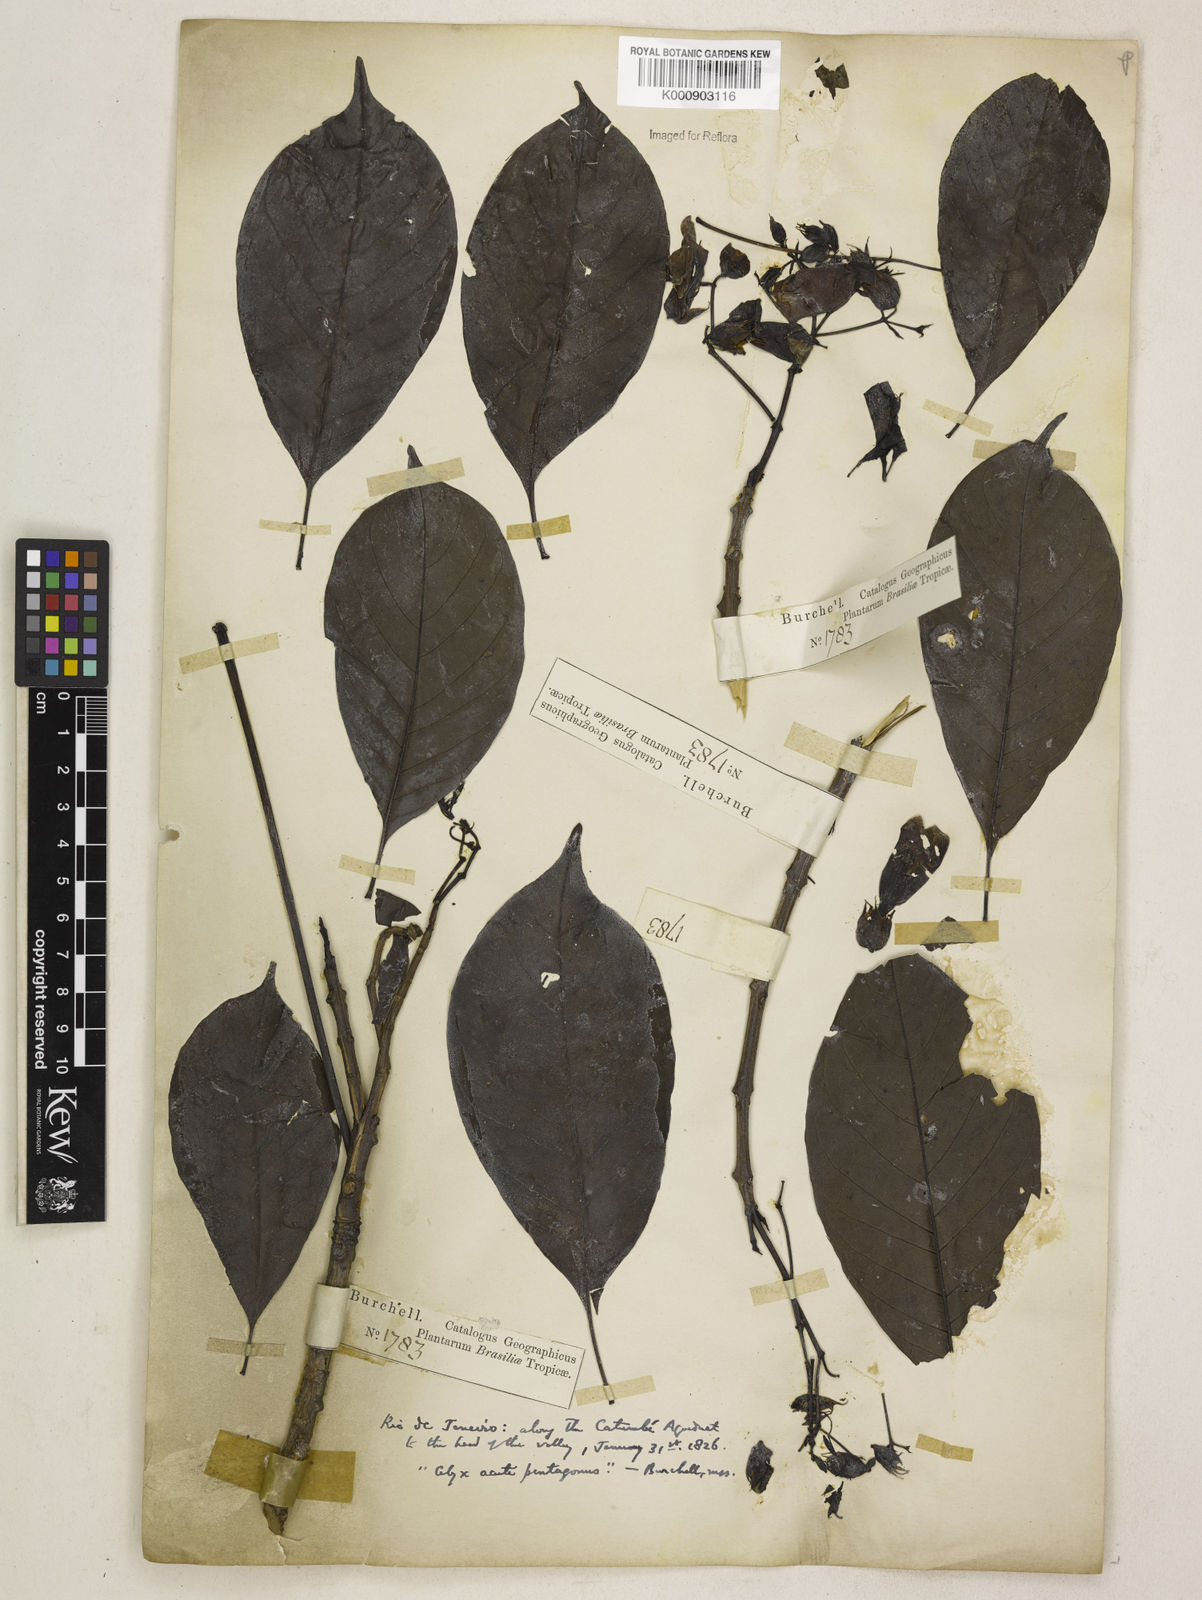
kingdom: Plantae
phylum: Tracheophyta
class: Magnoliopsida
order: Lamiales
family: Bignoniaceae
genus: Cybistax
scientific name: Cybistax antisyphilitica
